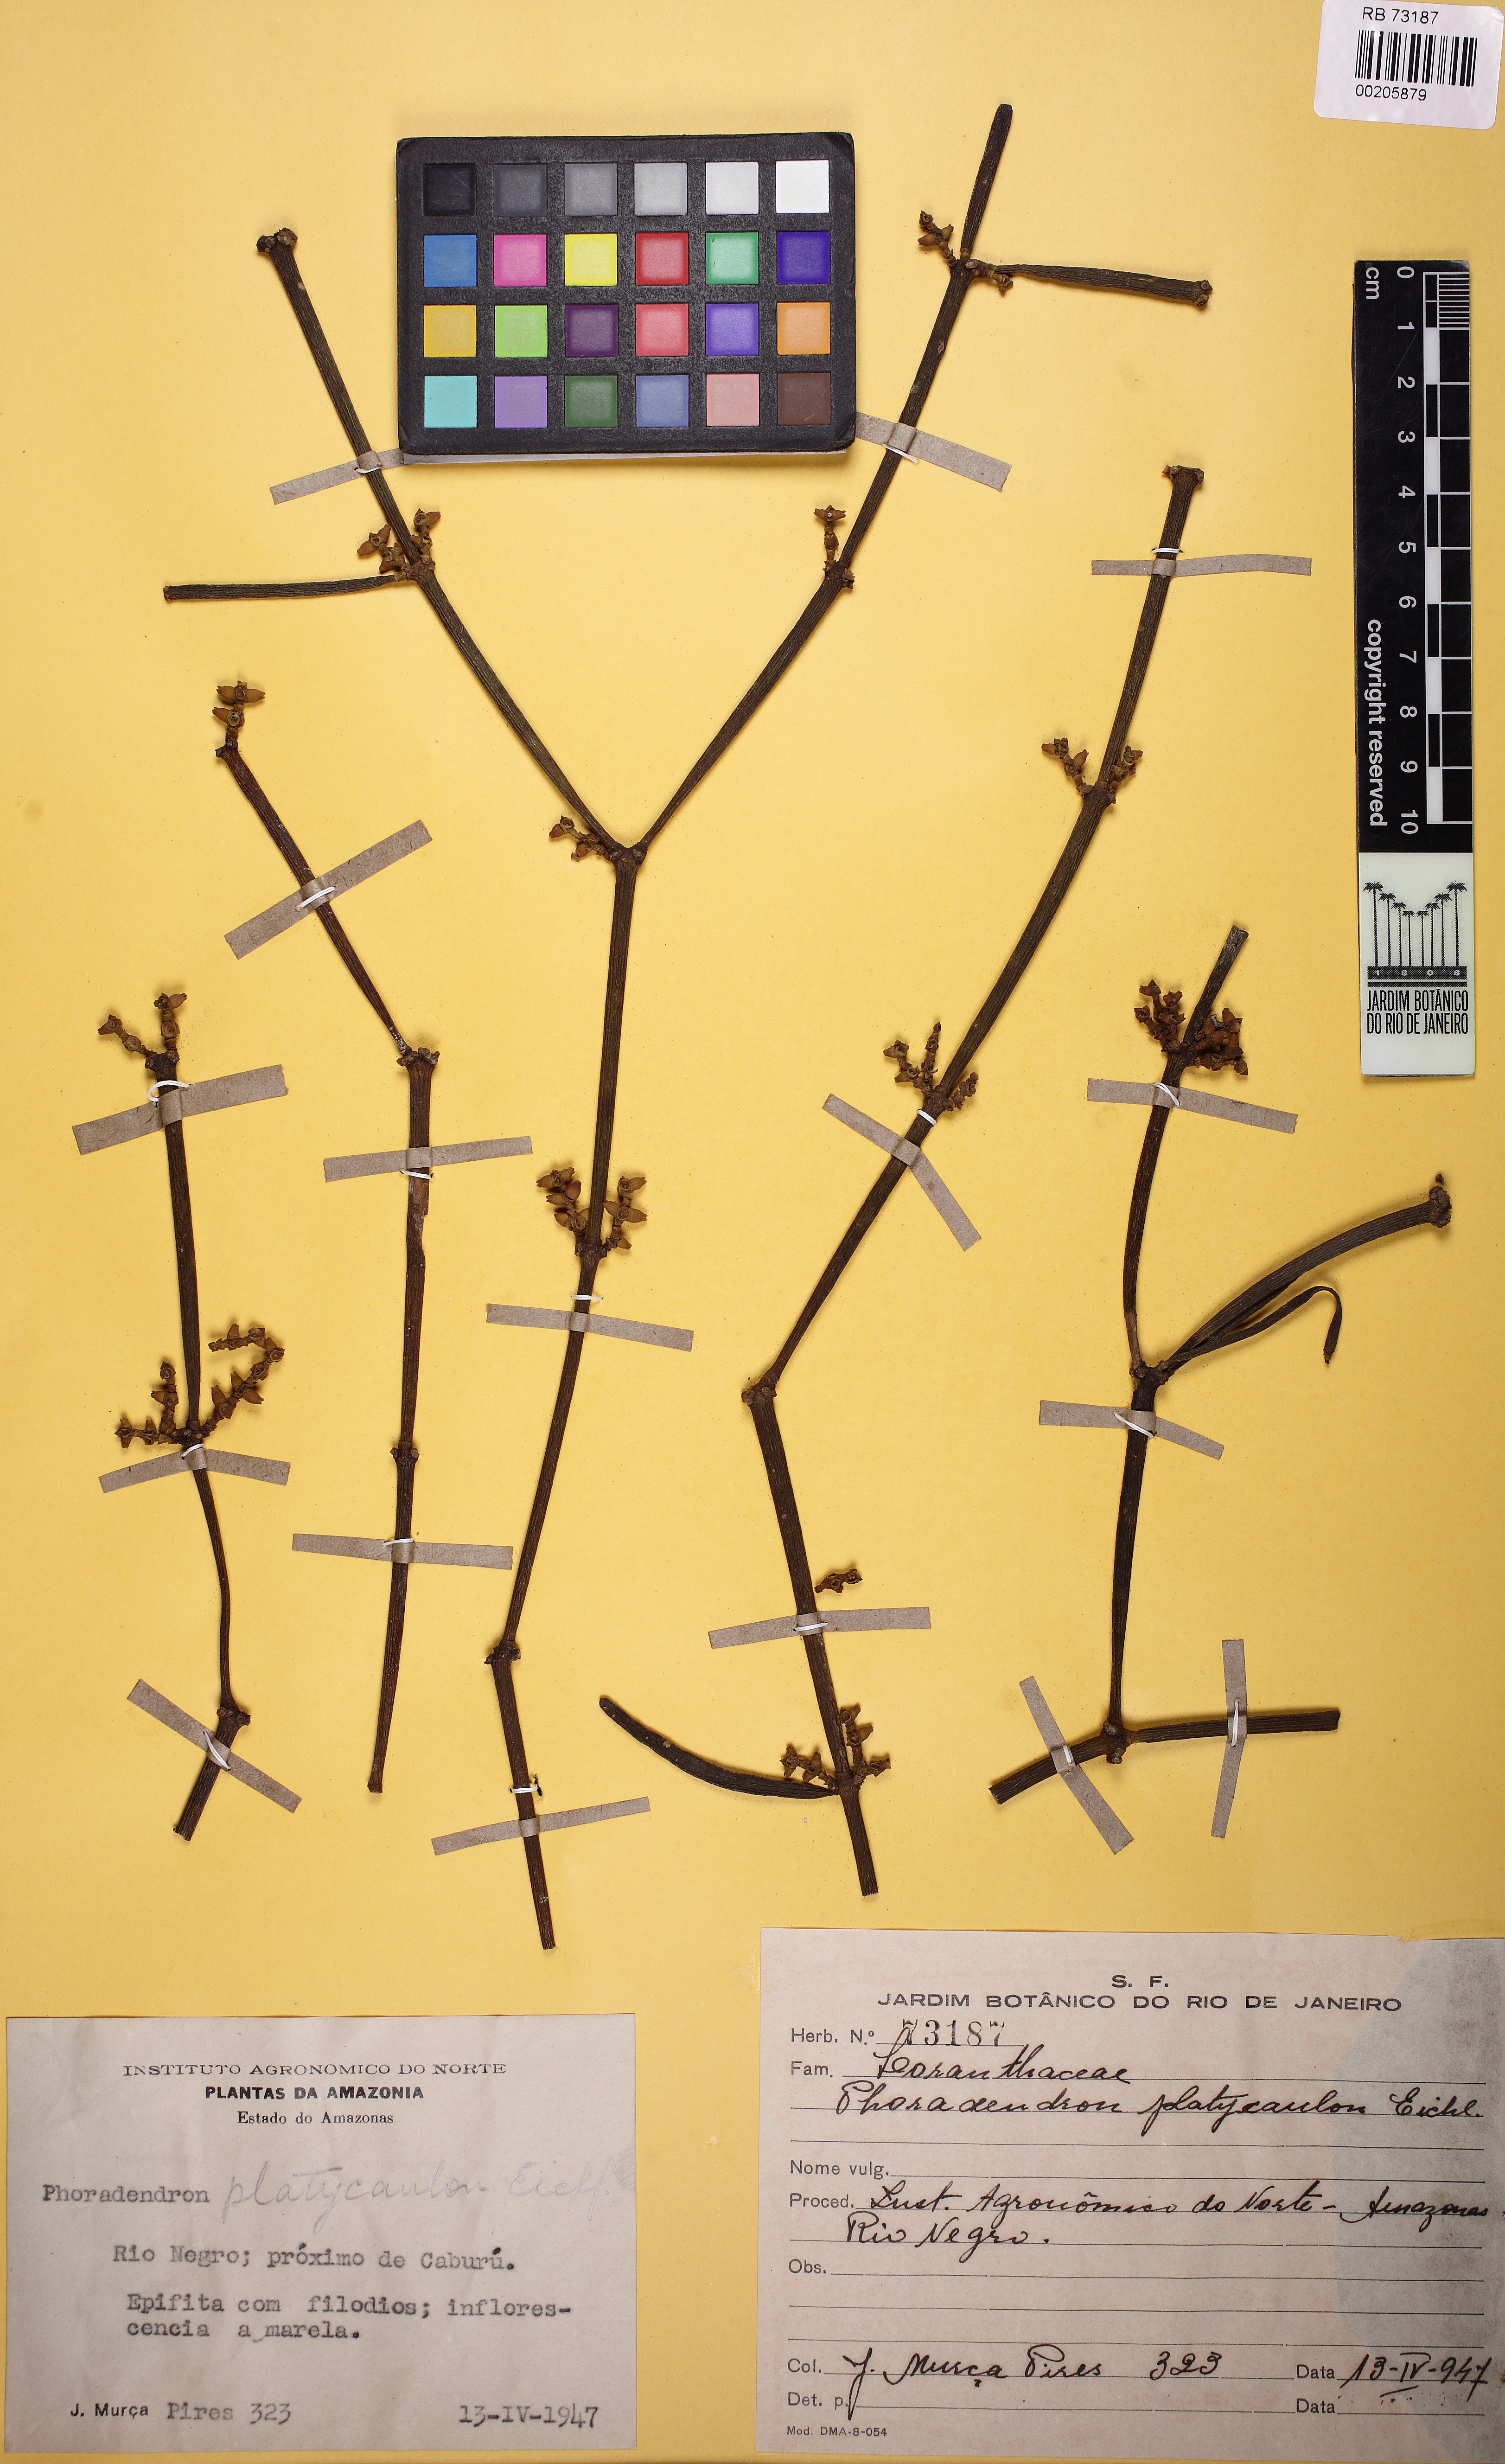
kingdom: Plantae
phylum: Tracheophyta
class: Magnoliopsida
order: Santalales
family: Viscaceae
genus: Phoradendron
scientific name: Phoradendron planiphyllum
